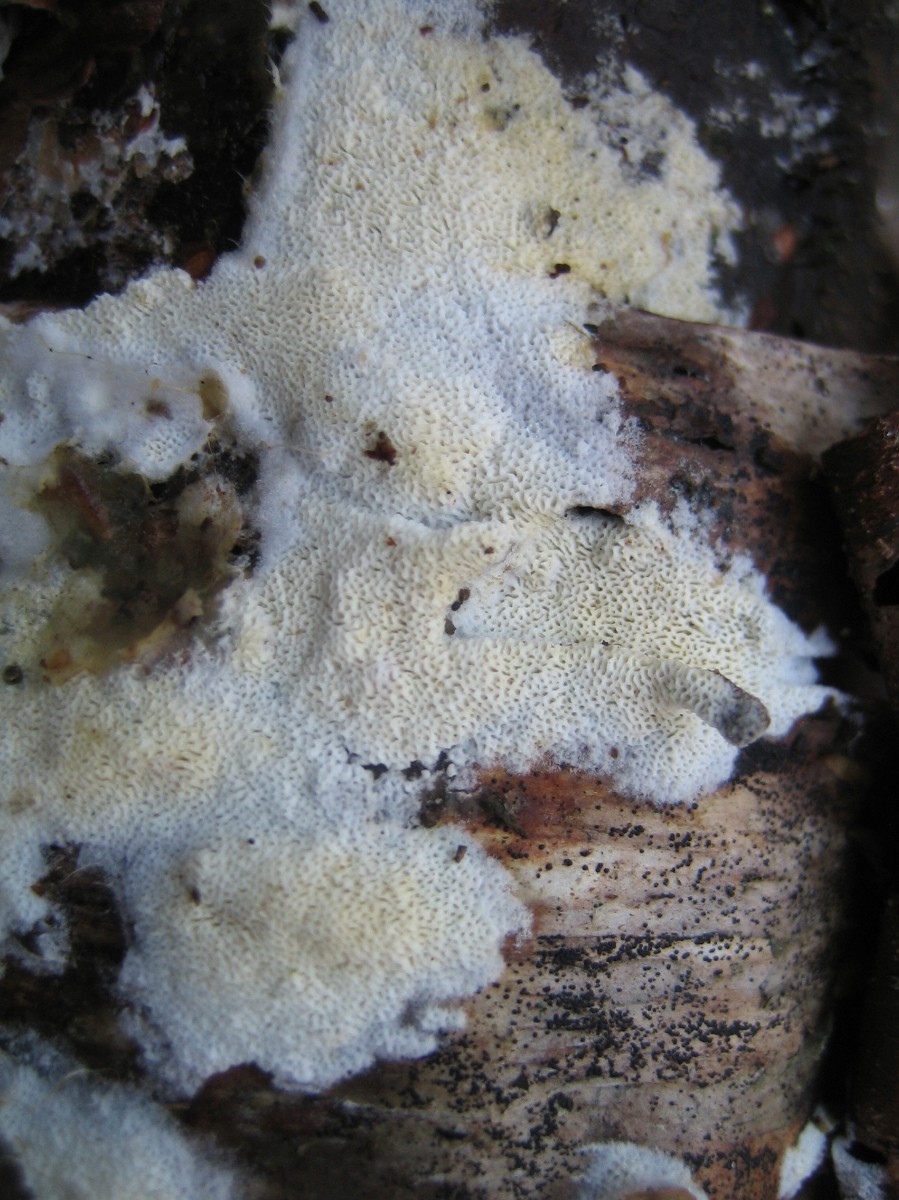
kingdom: Fungi
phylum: Basidiomycota
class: Agaricomycetes
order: Polyporales
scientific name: Polyporales
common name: poresvampordenen
